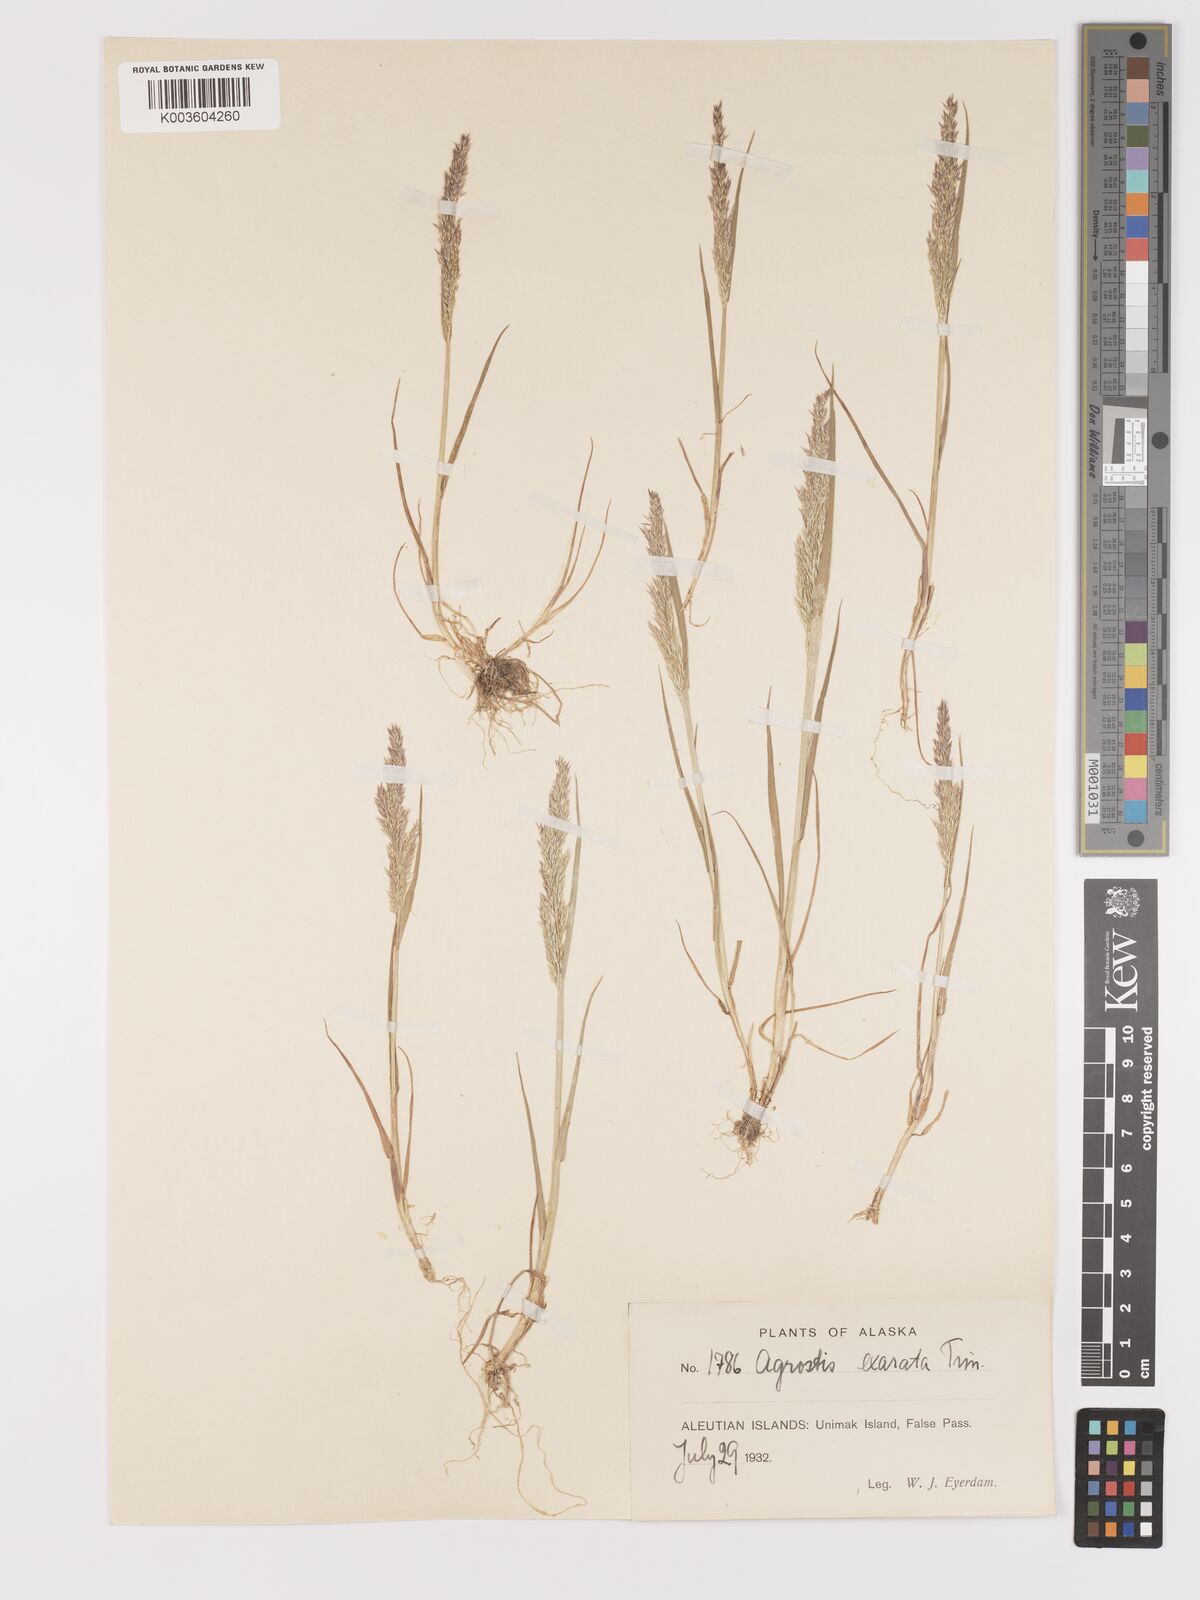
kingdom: Plantae
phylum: Tracheophyta
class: Liliopsida
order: Poales
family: Poaceae
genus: Agrostis
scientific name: Agrostis exarata
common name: Spike bent
